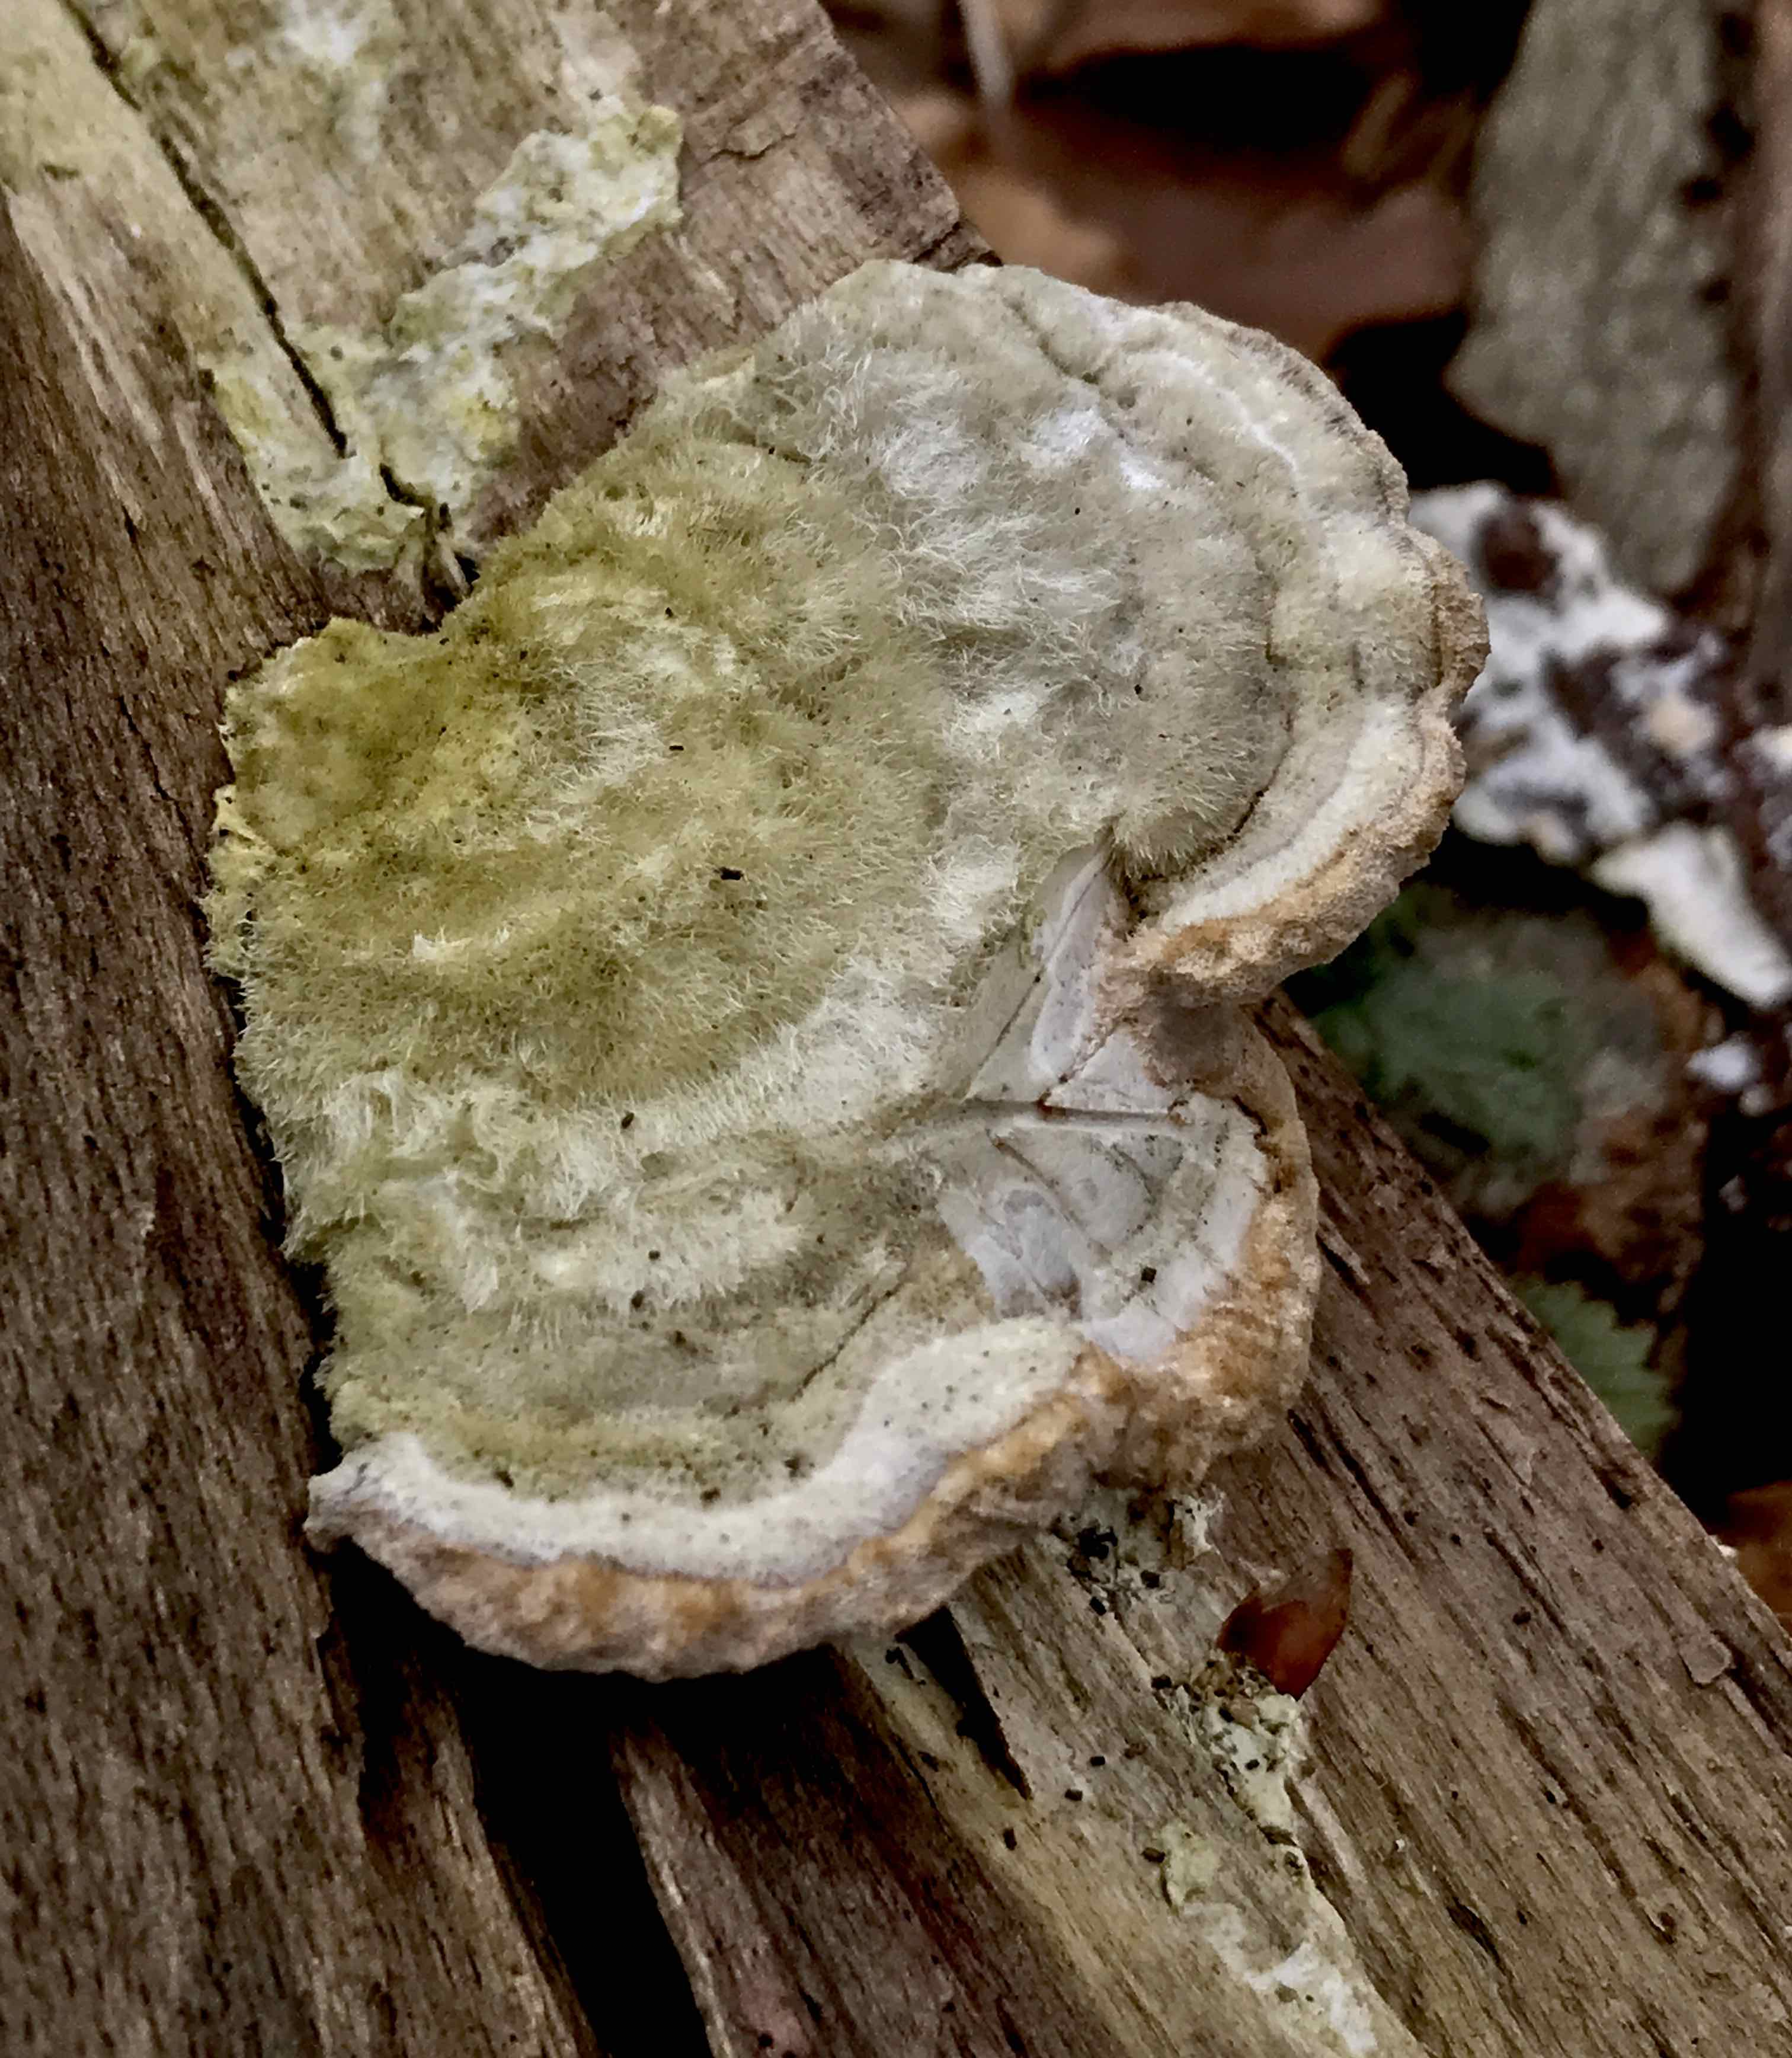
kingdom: Fungi
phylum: Basidiomycota
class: Agaricomycetes
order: Polyporales
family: Polyporaceae
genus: Trametes
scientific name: Trametes hirsuta
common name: håret læderporesvamp
